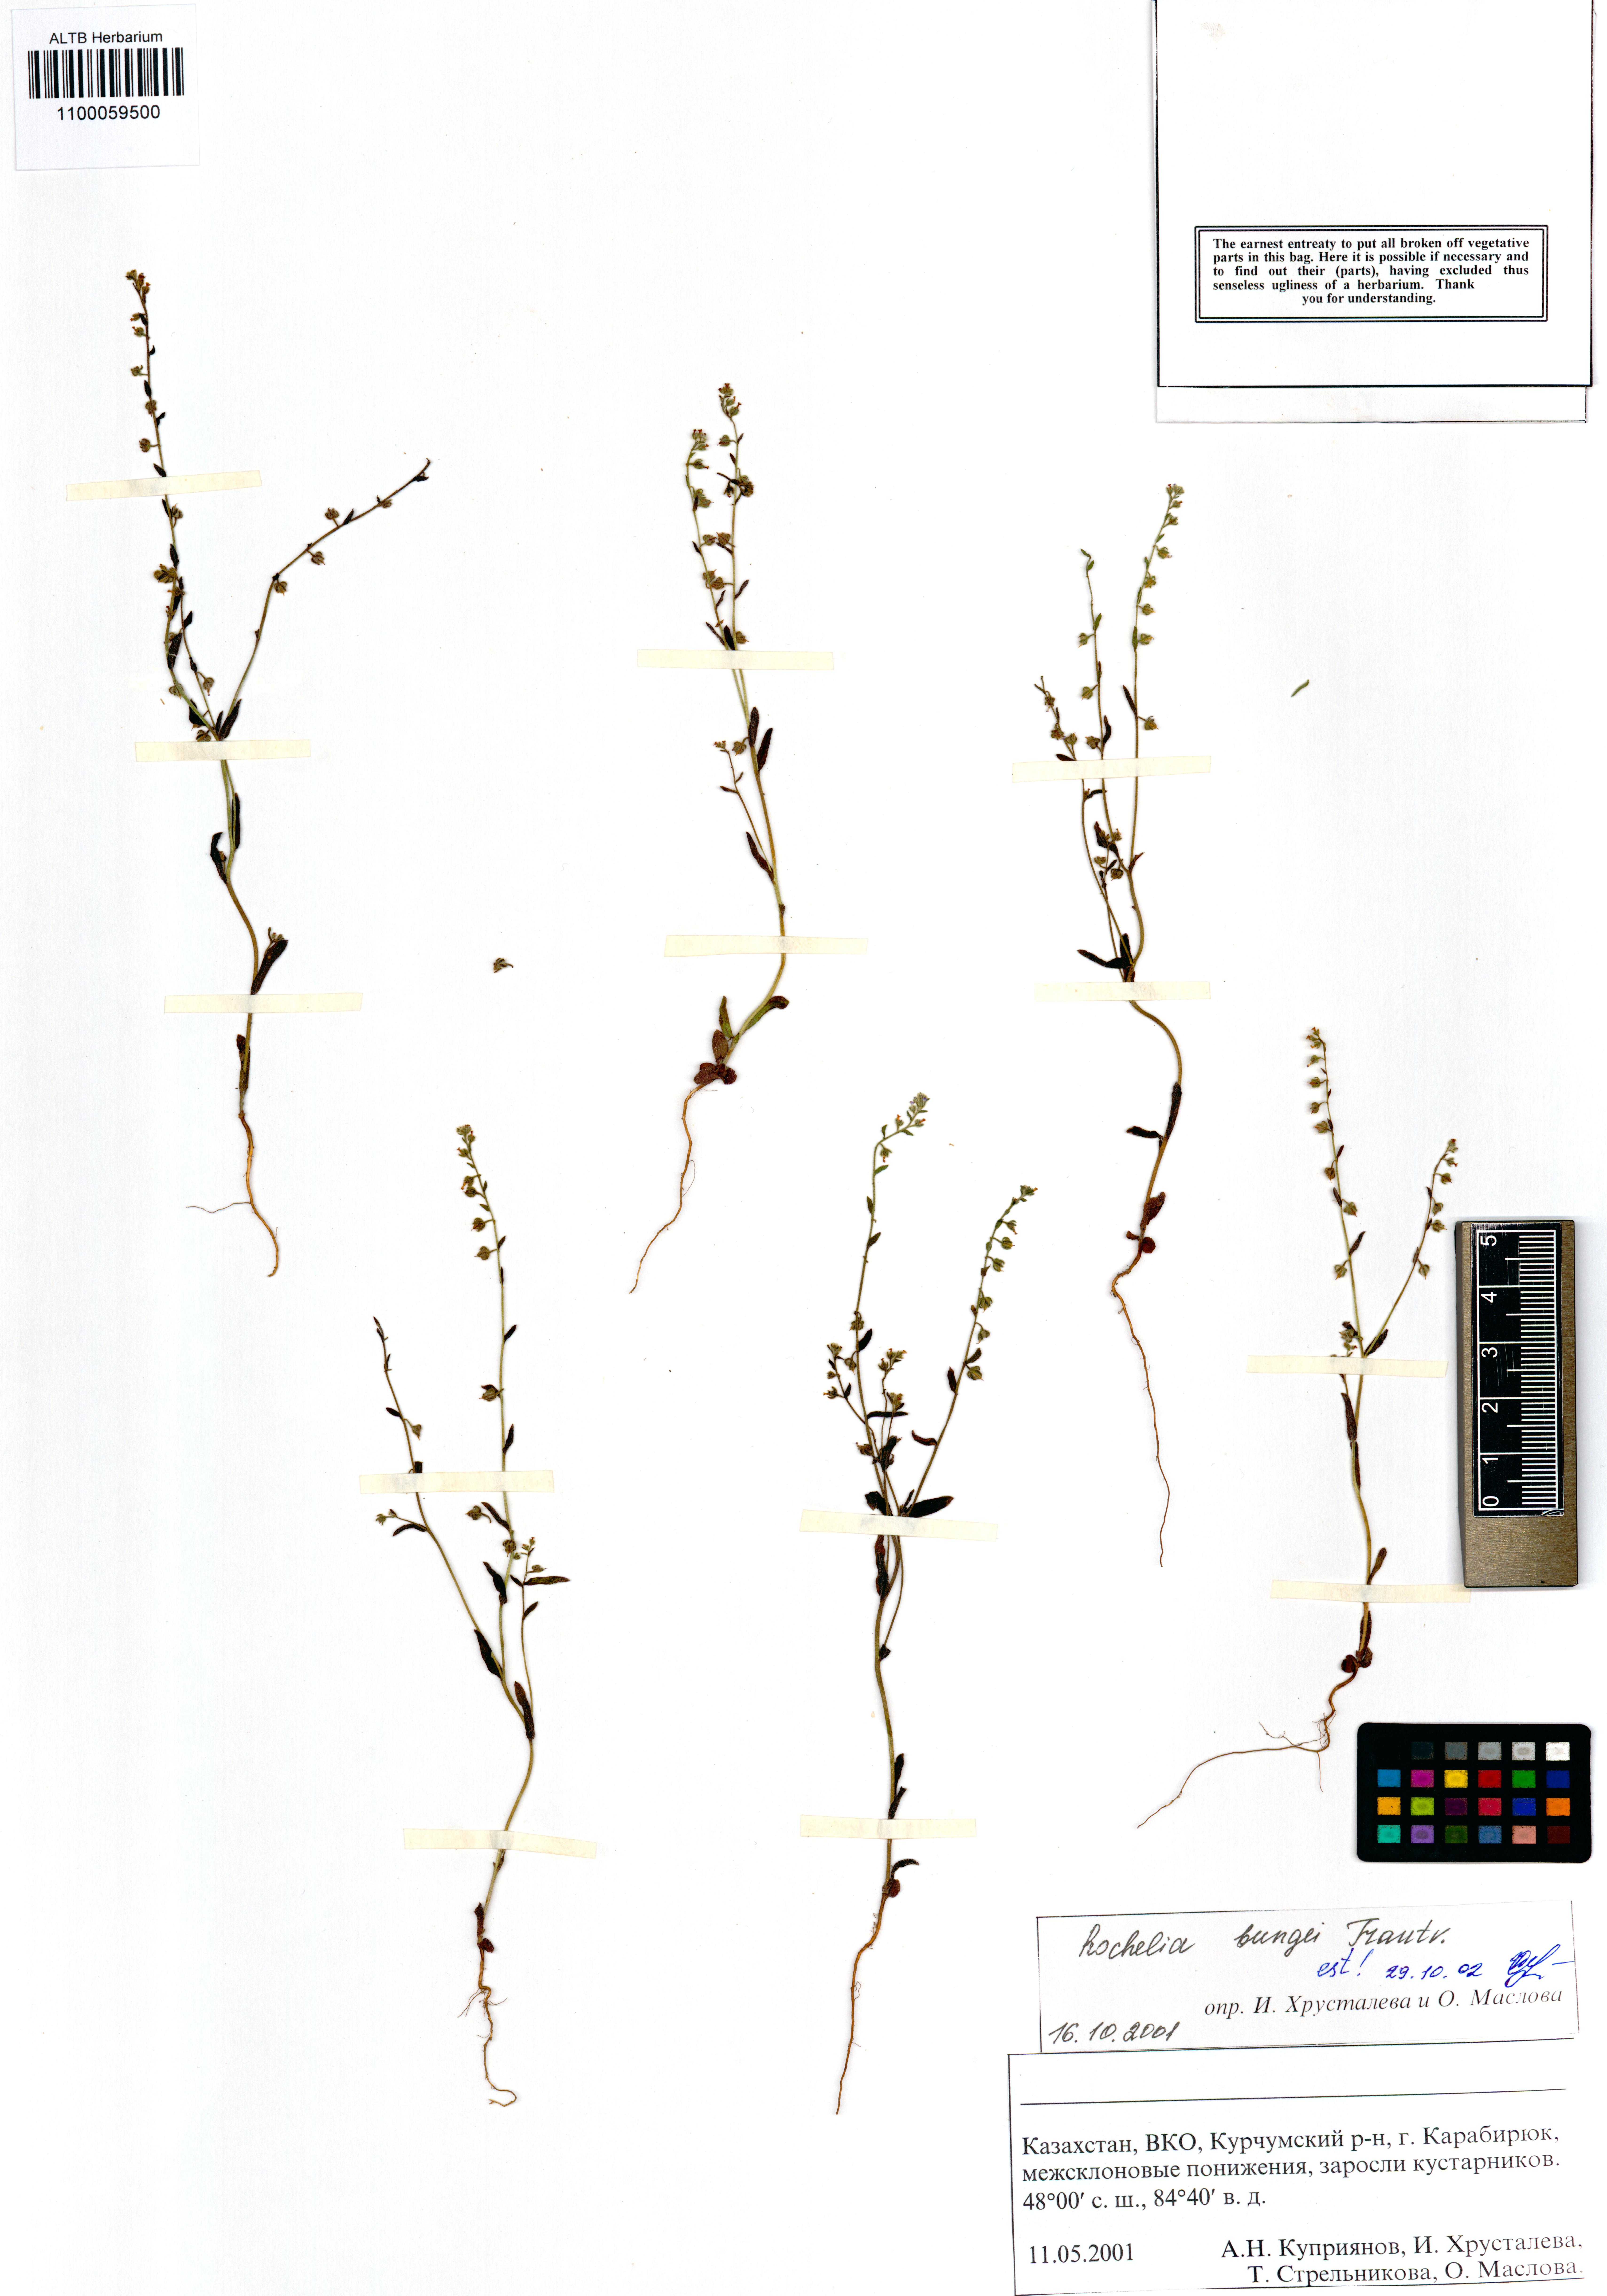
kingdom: Plantae
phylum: Tracheophyta
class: Magnoliopsida
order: Boraginales
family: Boraginaceae
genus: Rochelia
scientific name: Rochelia bungei
